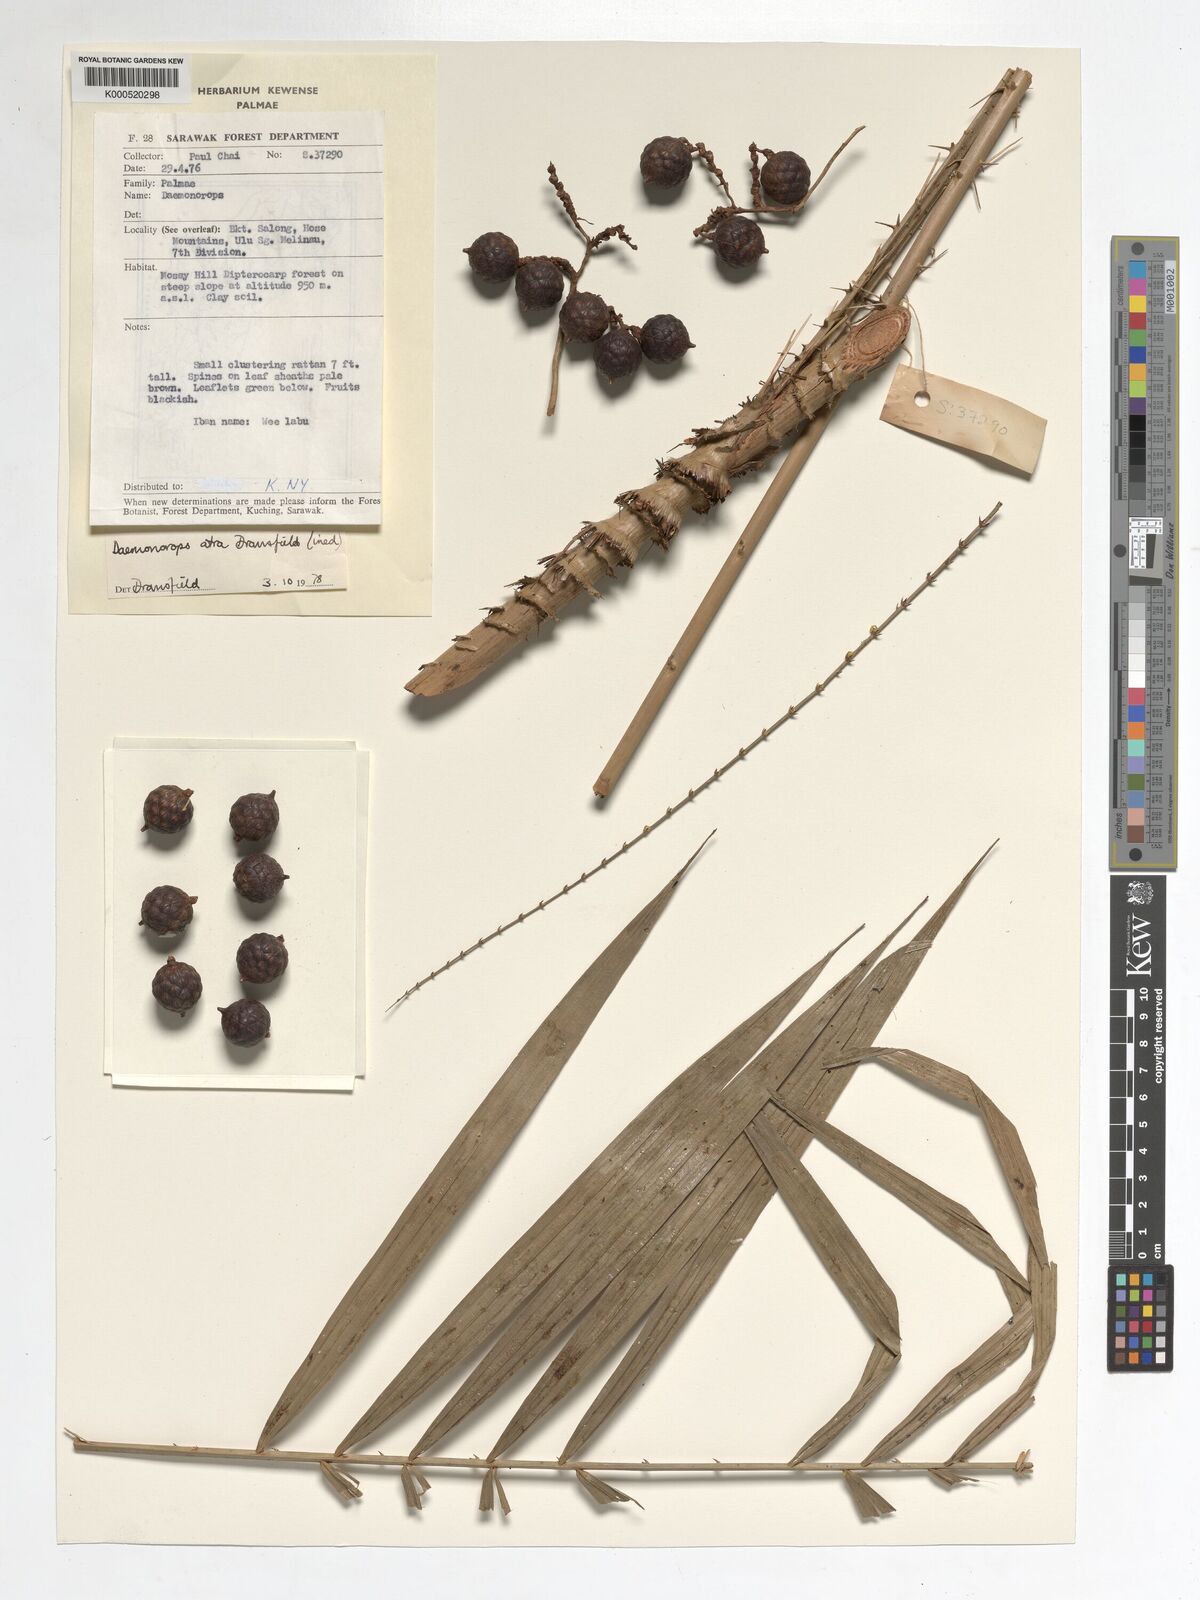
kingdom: Plantae
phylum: Tracheophyta
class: Liliopsida
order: Arecales
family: Arecaceae
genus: Calamus
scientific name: Calamus ater
